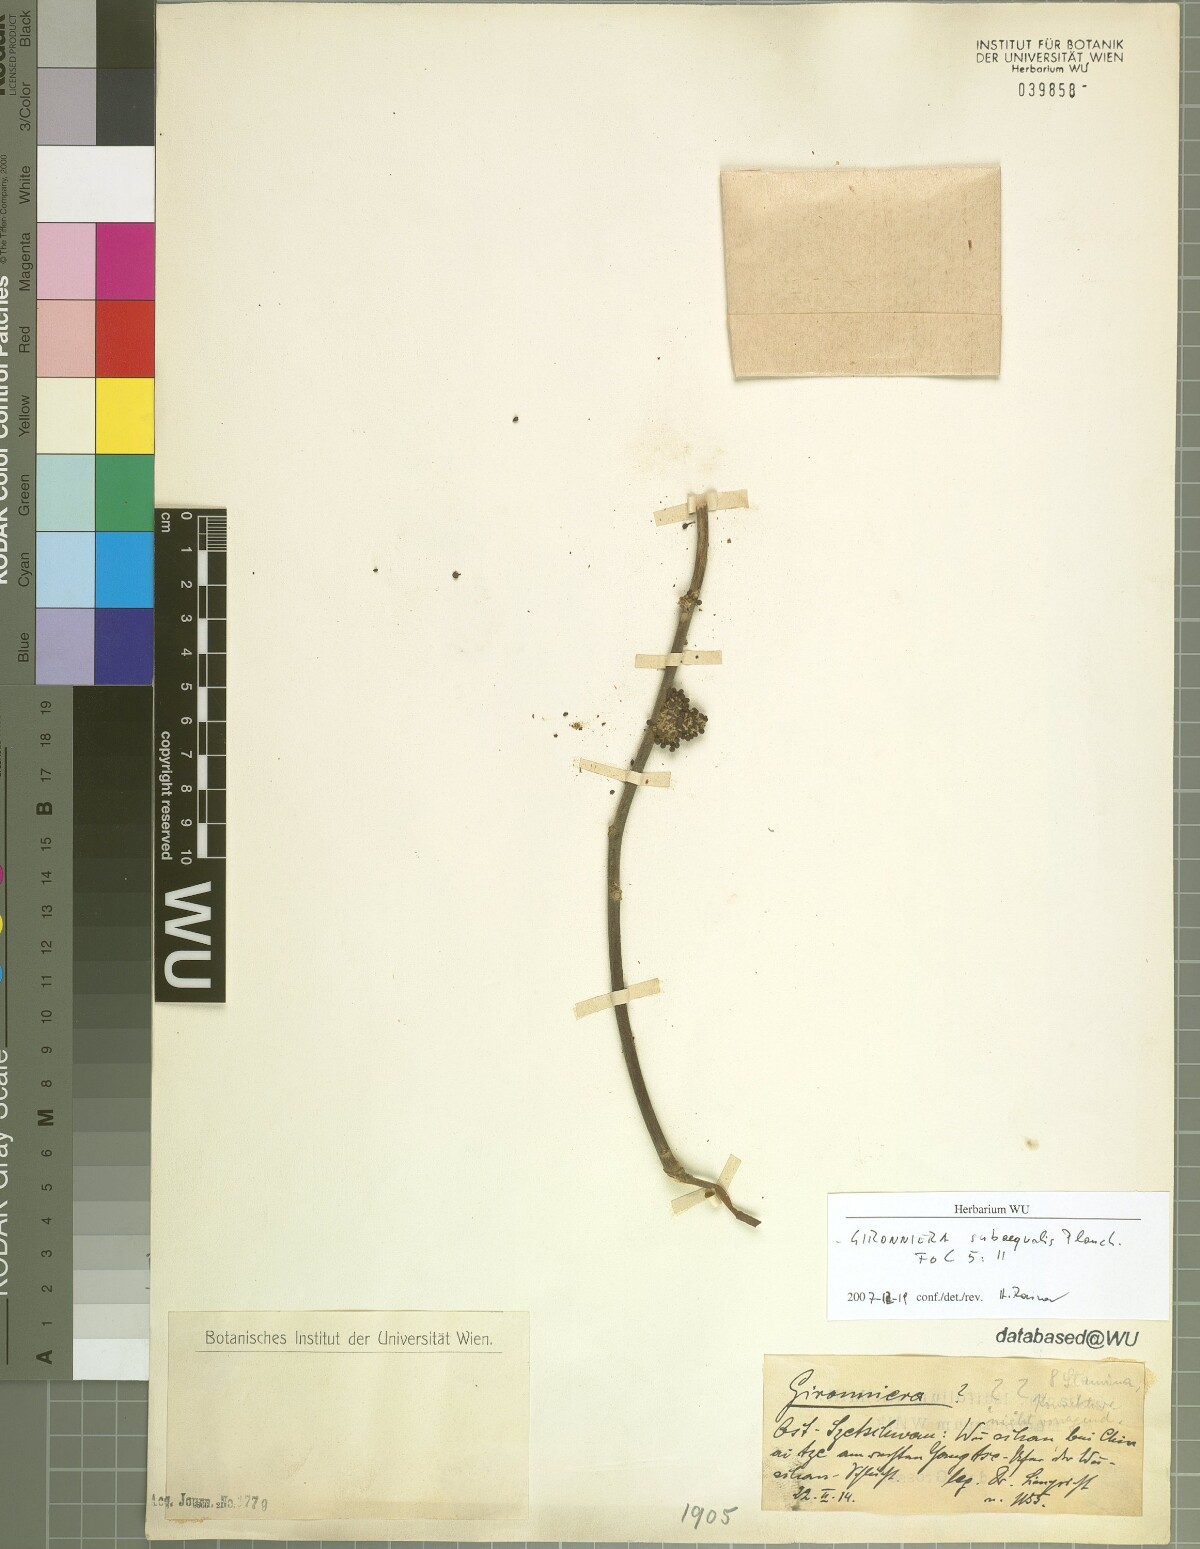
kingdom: Plantae
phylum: Tracheophyta
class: Magnoliopsida
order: Rosales
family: Cannabaceae
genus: Gironniera
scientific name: Gironniera subaequalis
